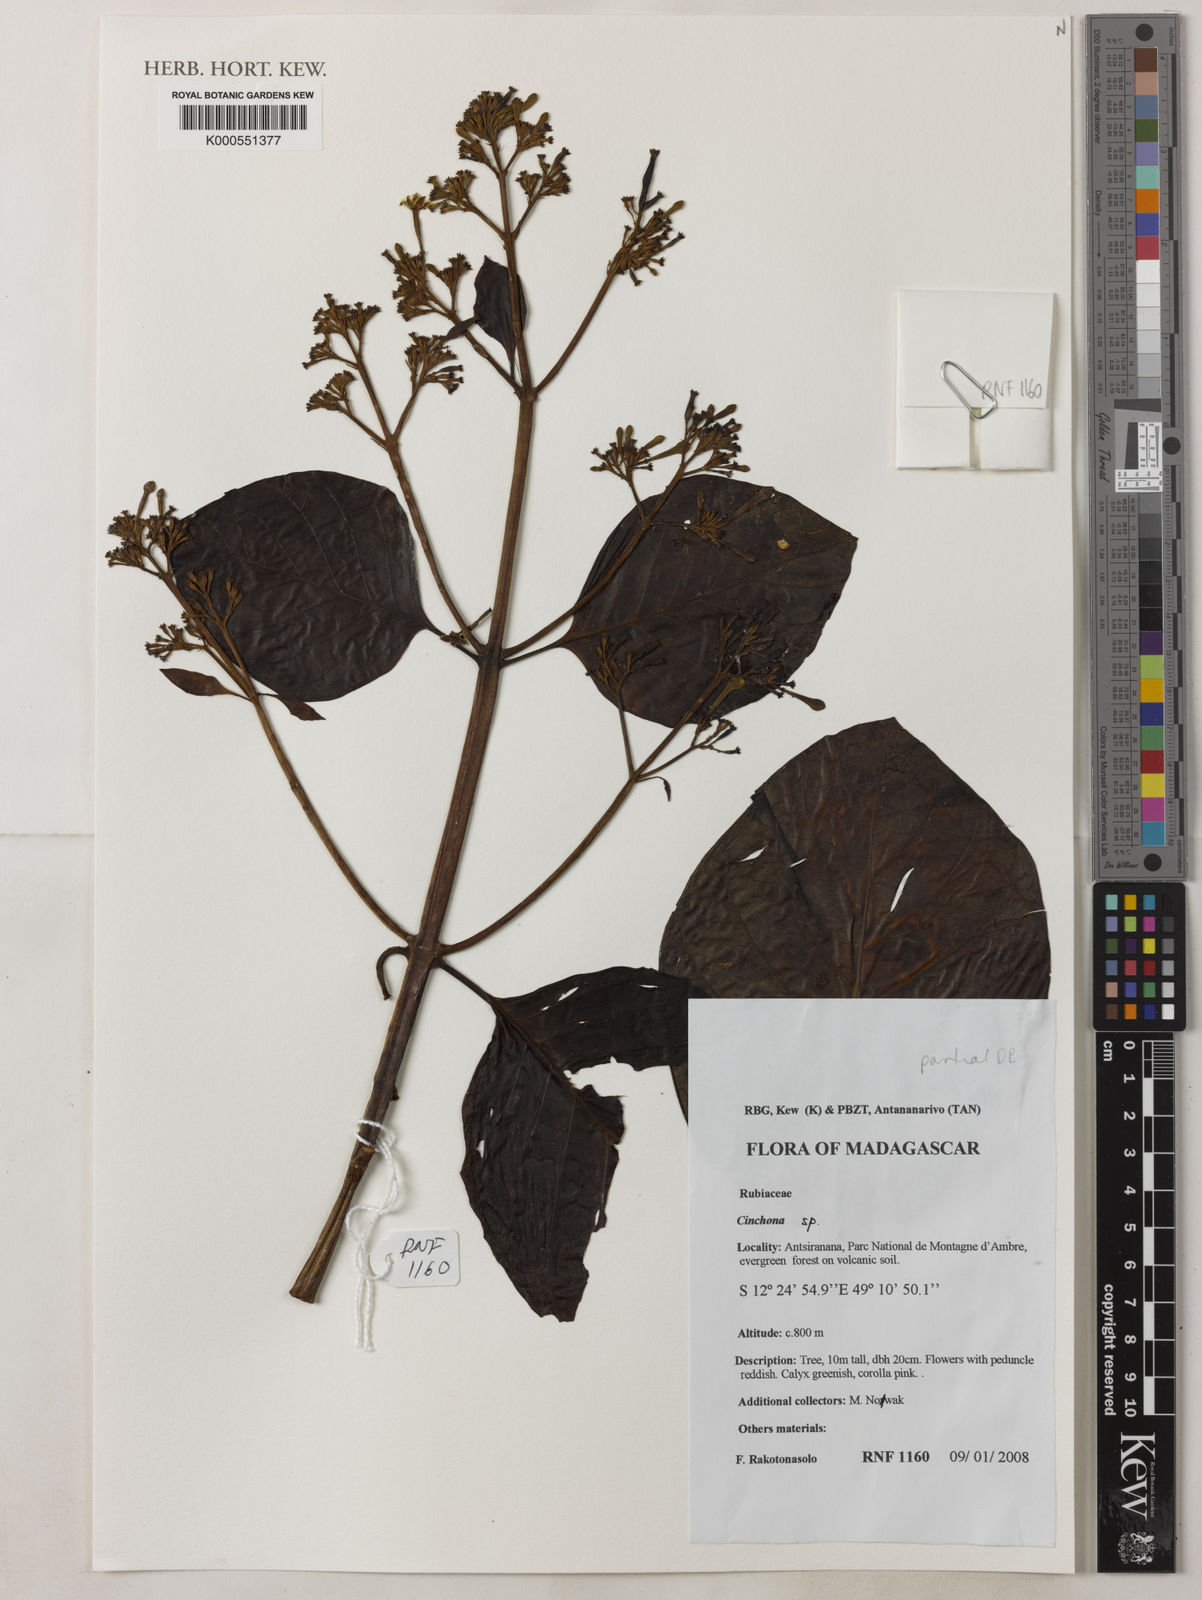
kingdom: Plantae
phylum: Tracheophyta
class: Magnoliopsida
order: Gentianales
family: Rubiaceae
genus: Cinchona
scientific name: Cinchona
